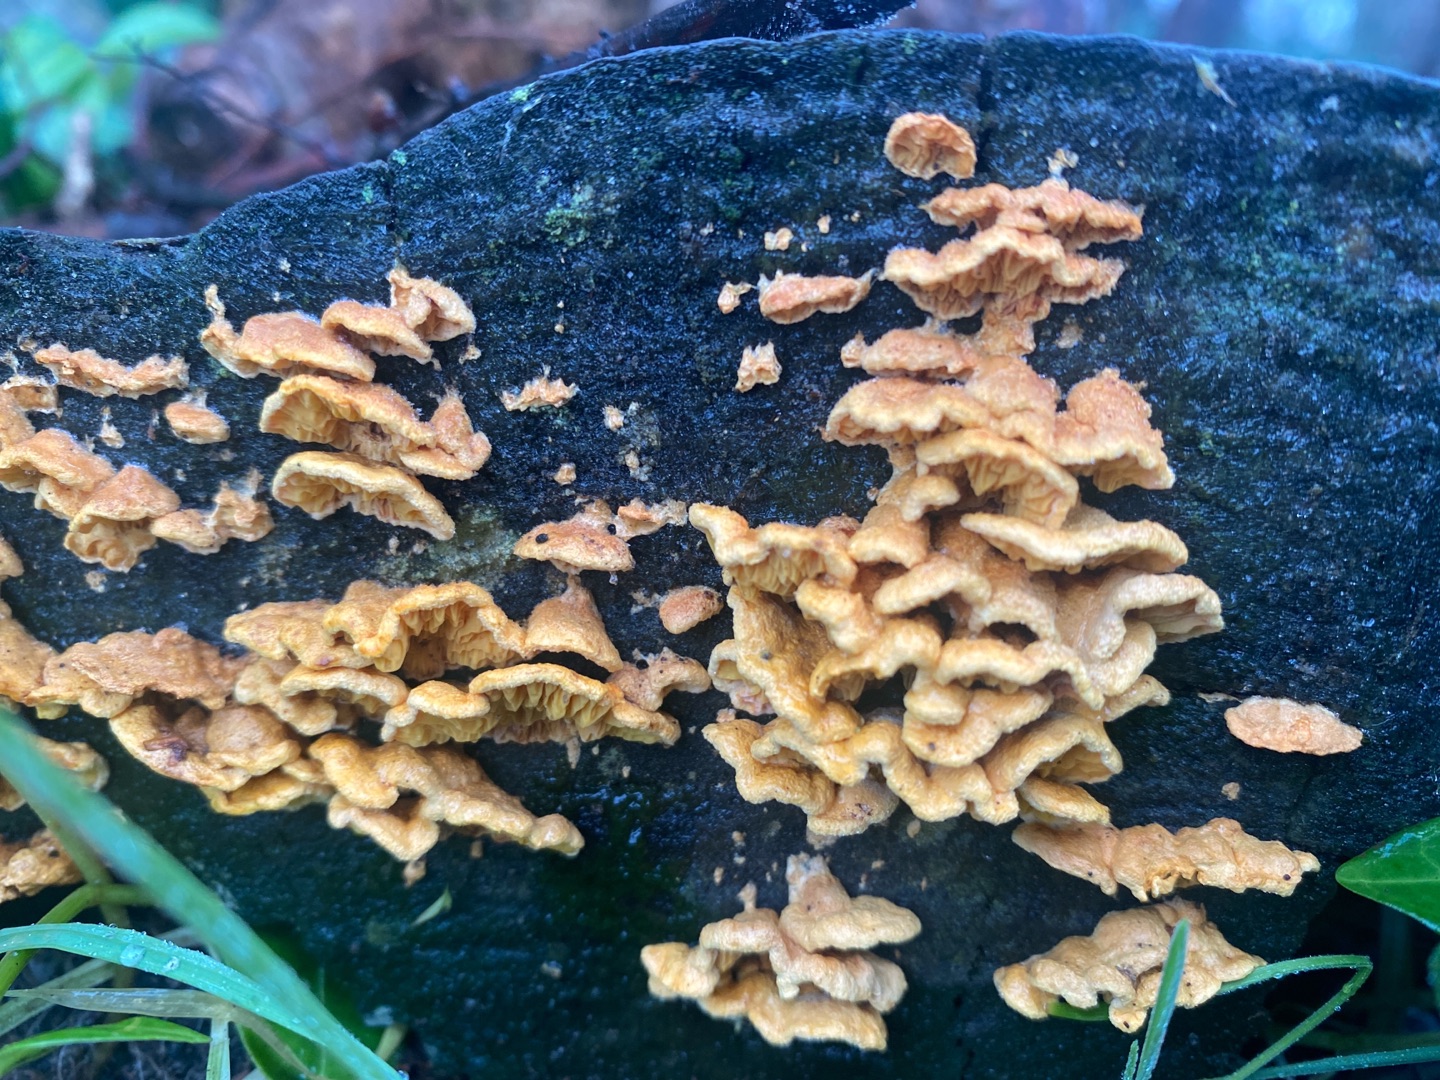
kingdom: Fungi
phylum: Basidiomycota
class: Agaricomycetes
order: Russulales
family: Stereaceae
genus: Stereum
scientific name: Stereum hirsutum
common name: Håret lædersvamp
